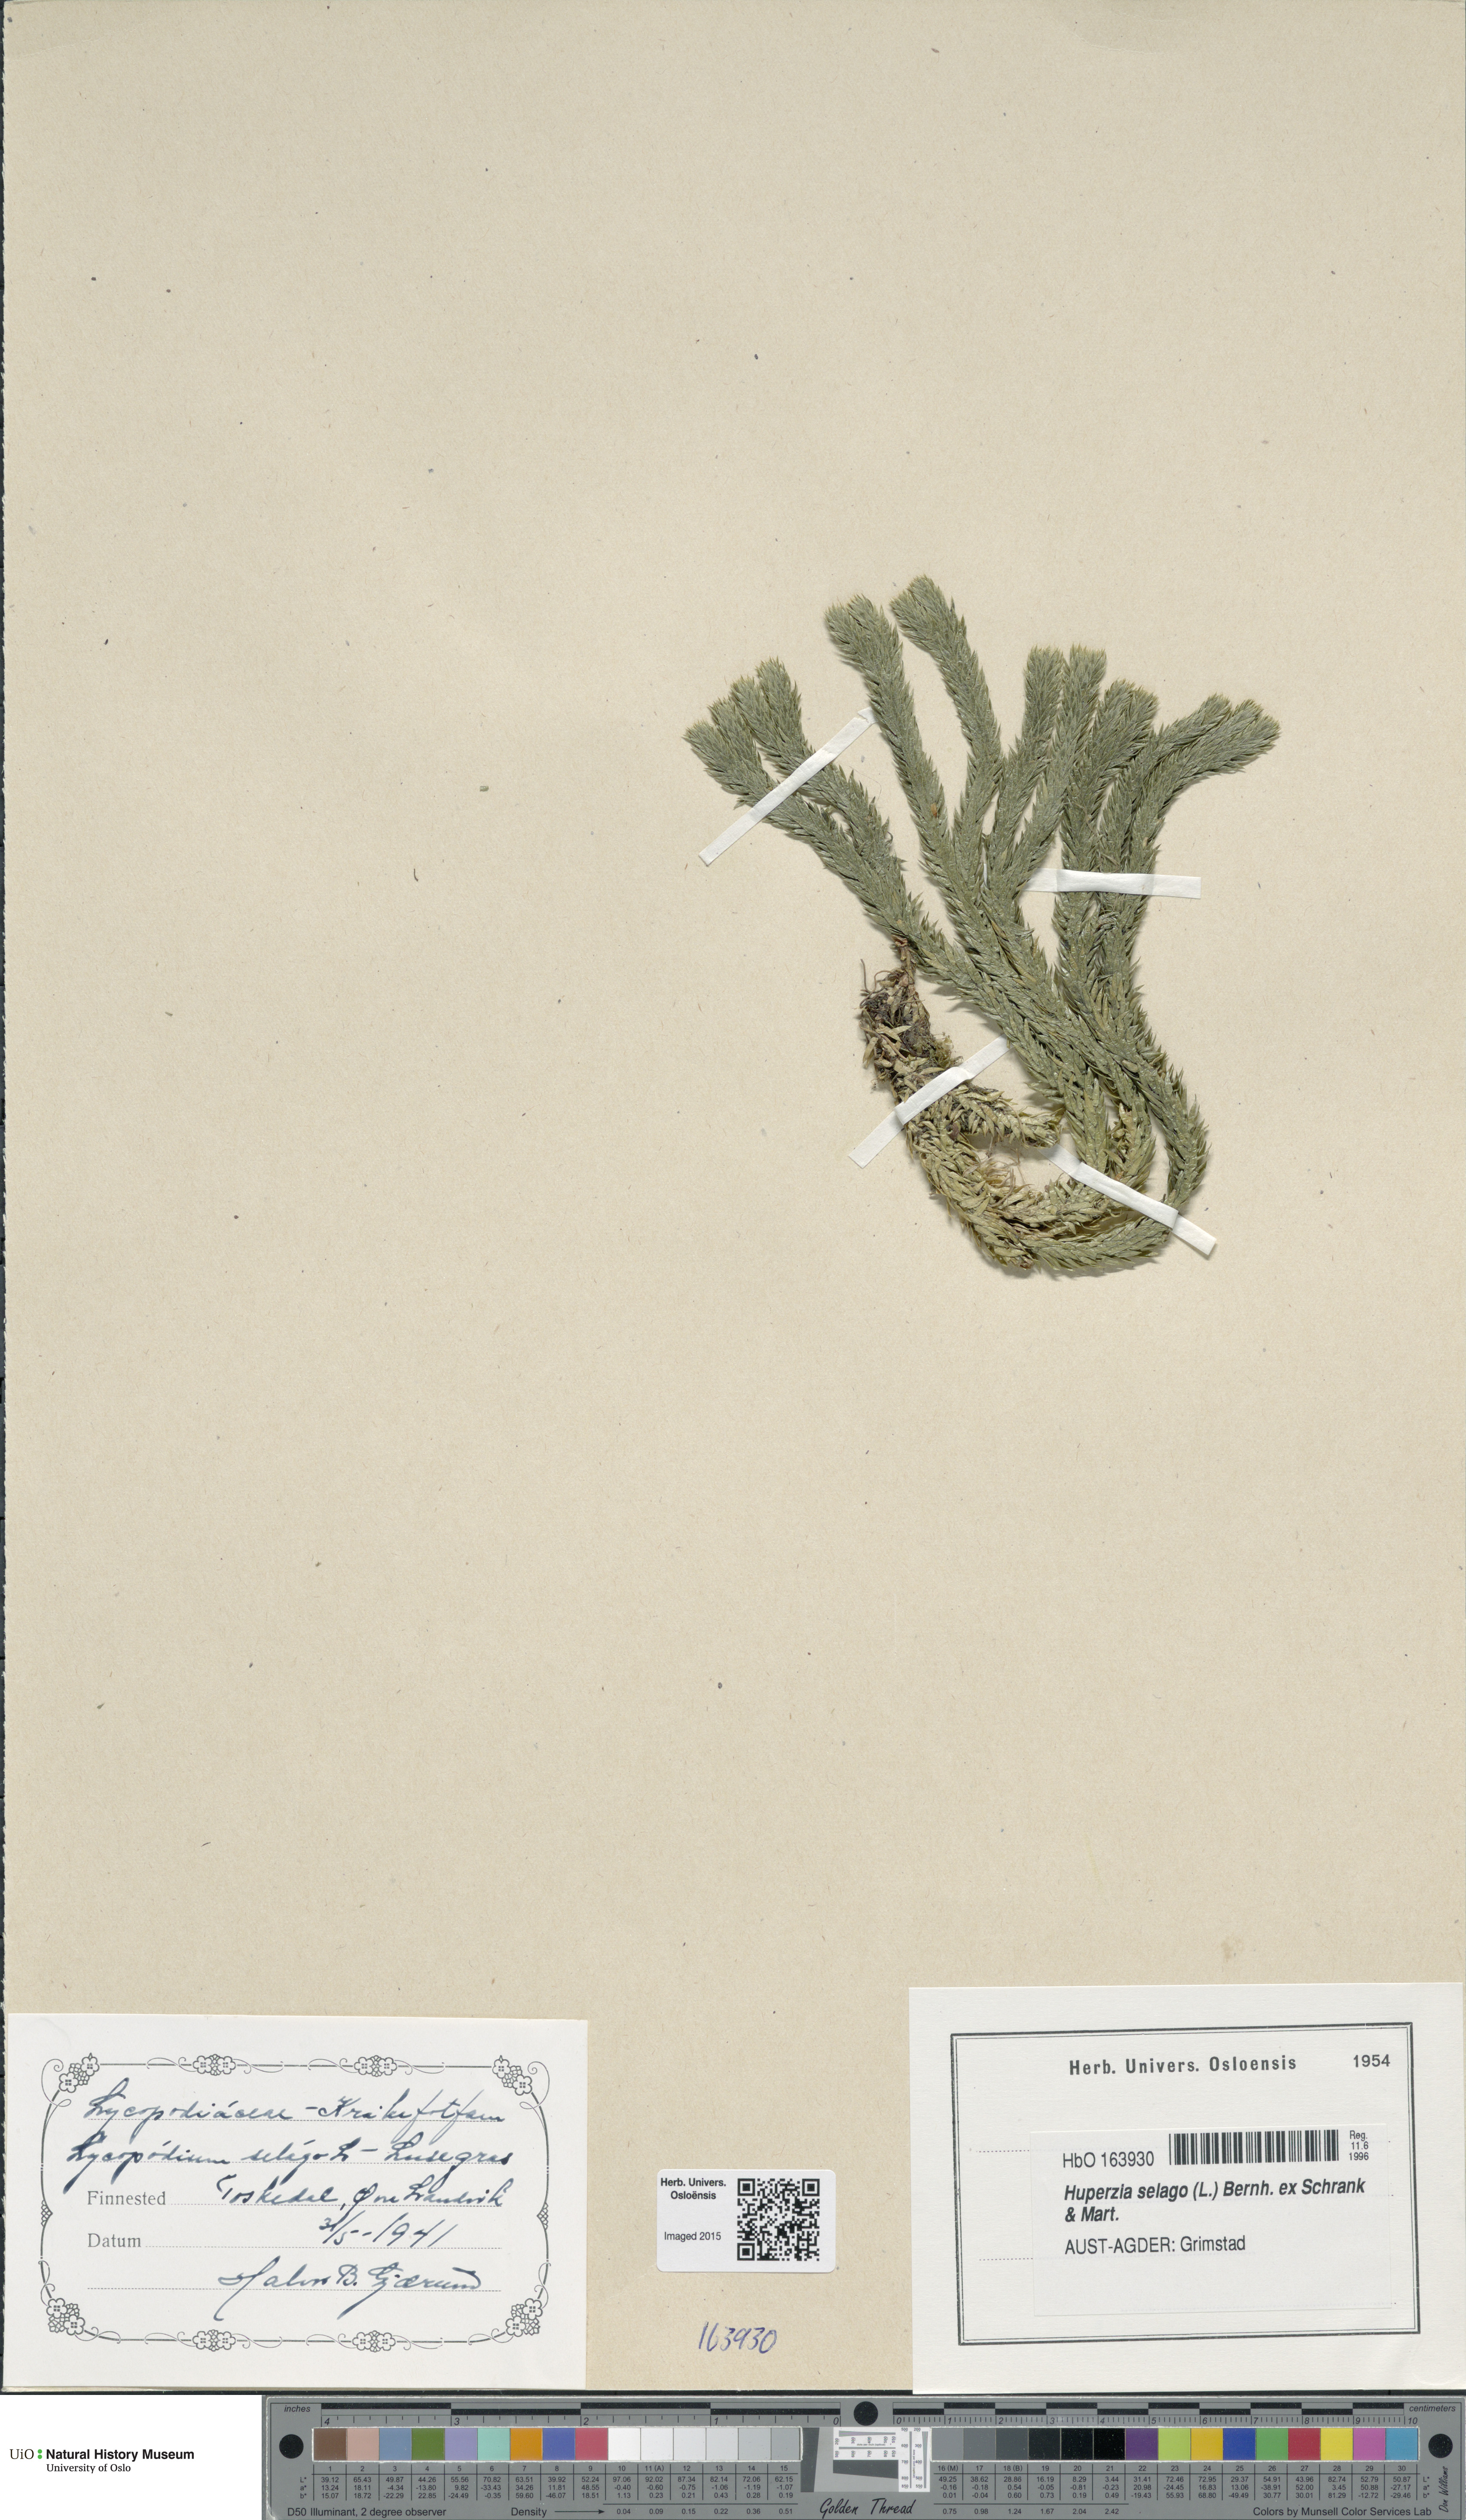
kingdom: Plantae
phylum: Tracheophyta
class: Lycopodiopsida
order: Lycopodiales
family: Lycopodiaceae
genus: Huperzia
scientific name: Huperzia selago
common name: Northern firmoss
